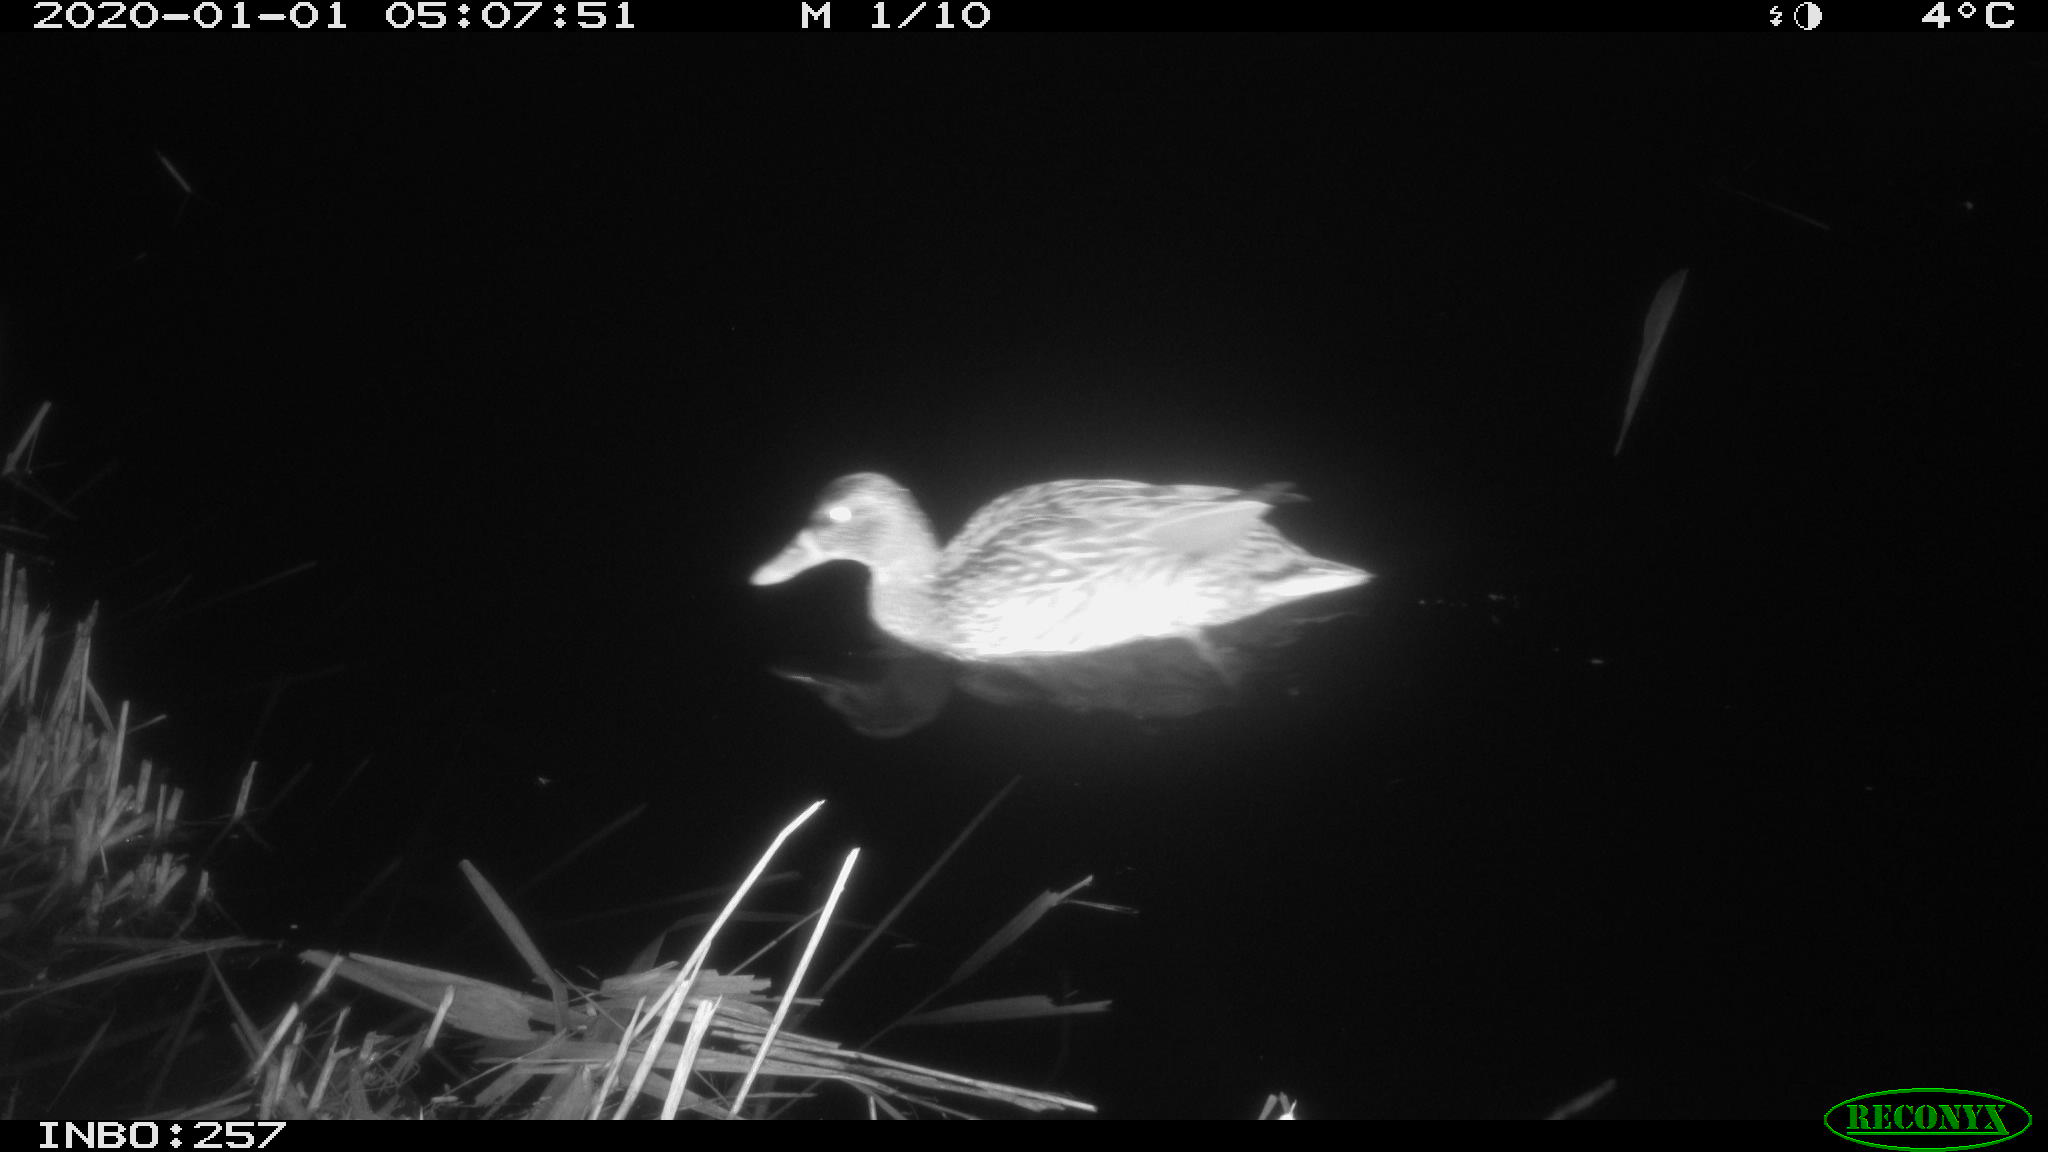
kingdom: Animalia
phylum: Chordata
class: Aves
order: Anseriformes
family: Anatidae
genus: Anas
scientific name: Anas platyrhynchos
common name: Mallard
